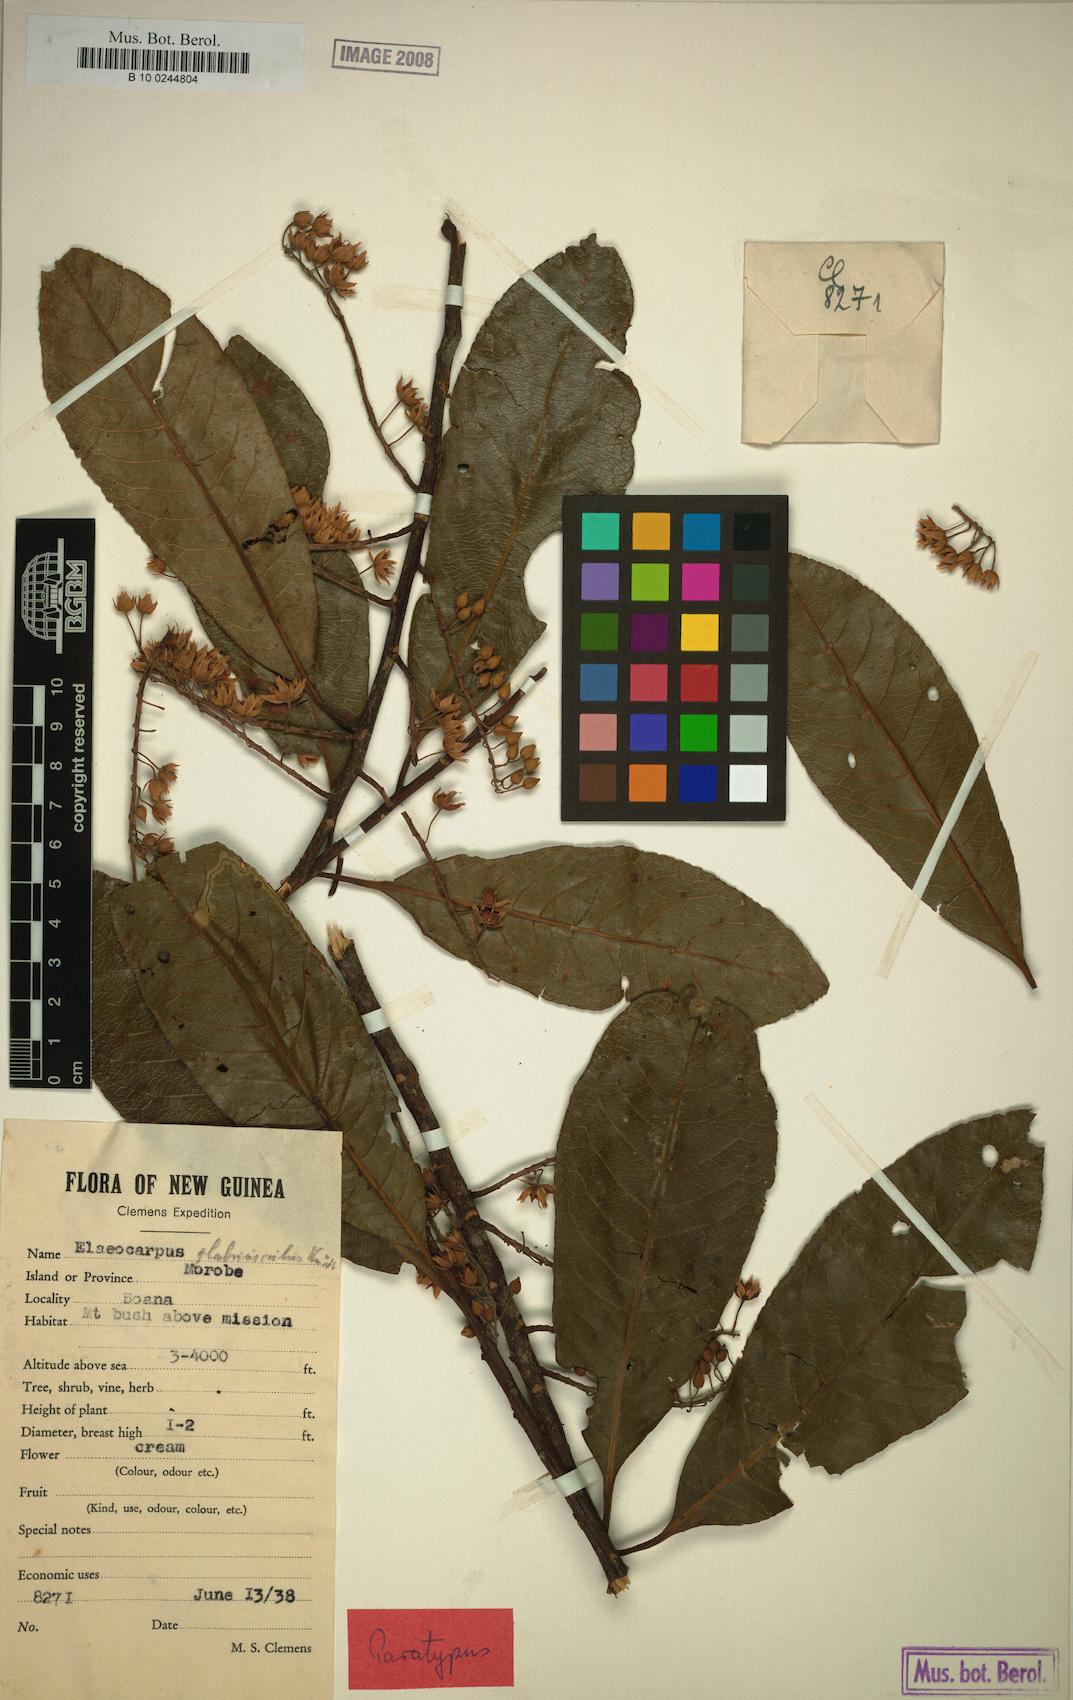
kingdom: Plantae
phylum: Tracheophyta
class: Magnoliopsida
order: Oxalidales
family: Elaeocarpaceae
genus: Elaeocarpus
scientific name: Elaeocarpus kaniensis
